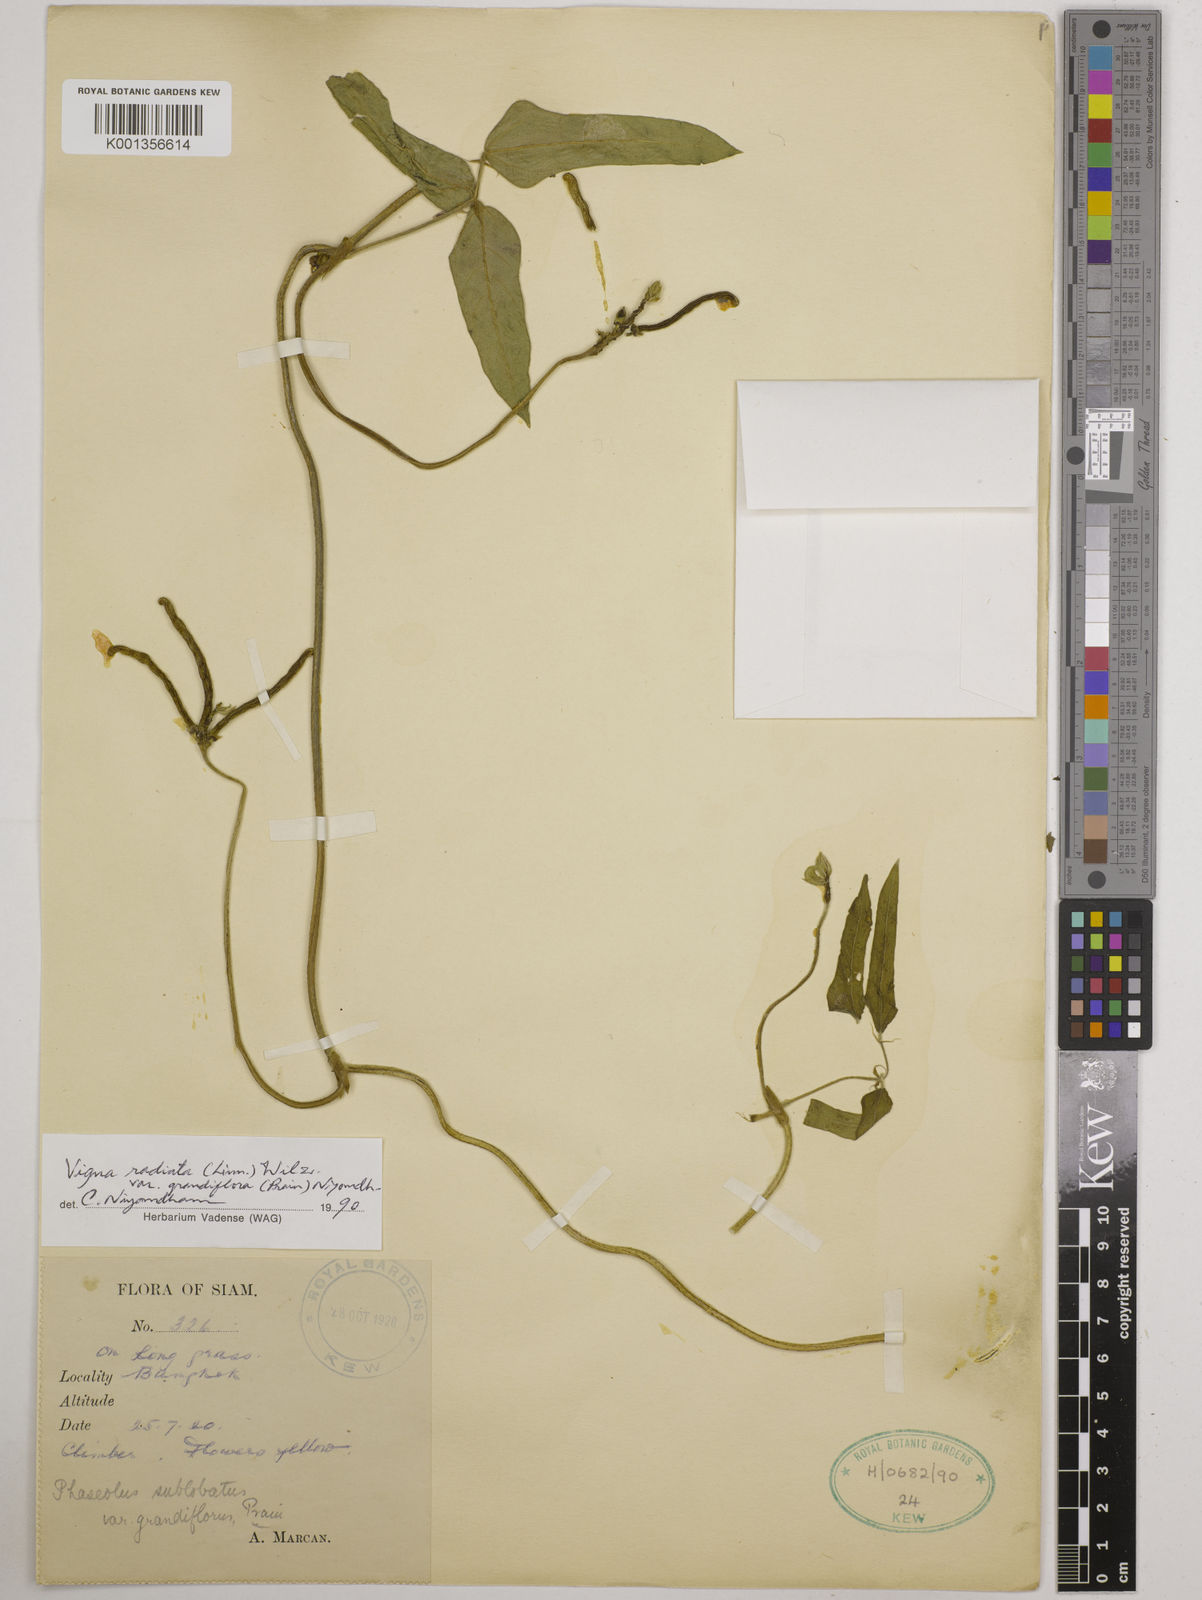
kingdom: Plantae
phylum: Tracheophyta
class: Magnoliopsida
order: Fabales
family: Fabaceae
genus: Vigna
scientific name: Vigna grandiflora
